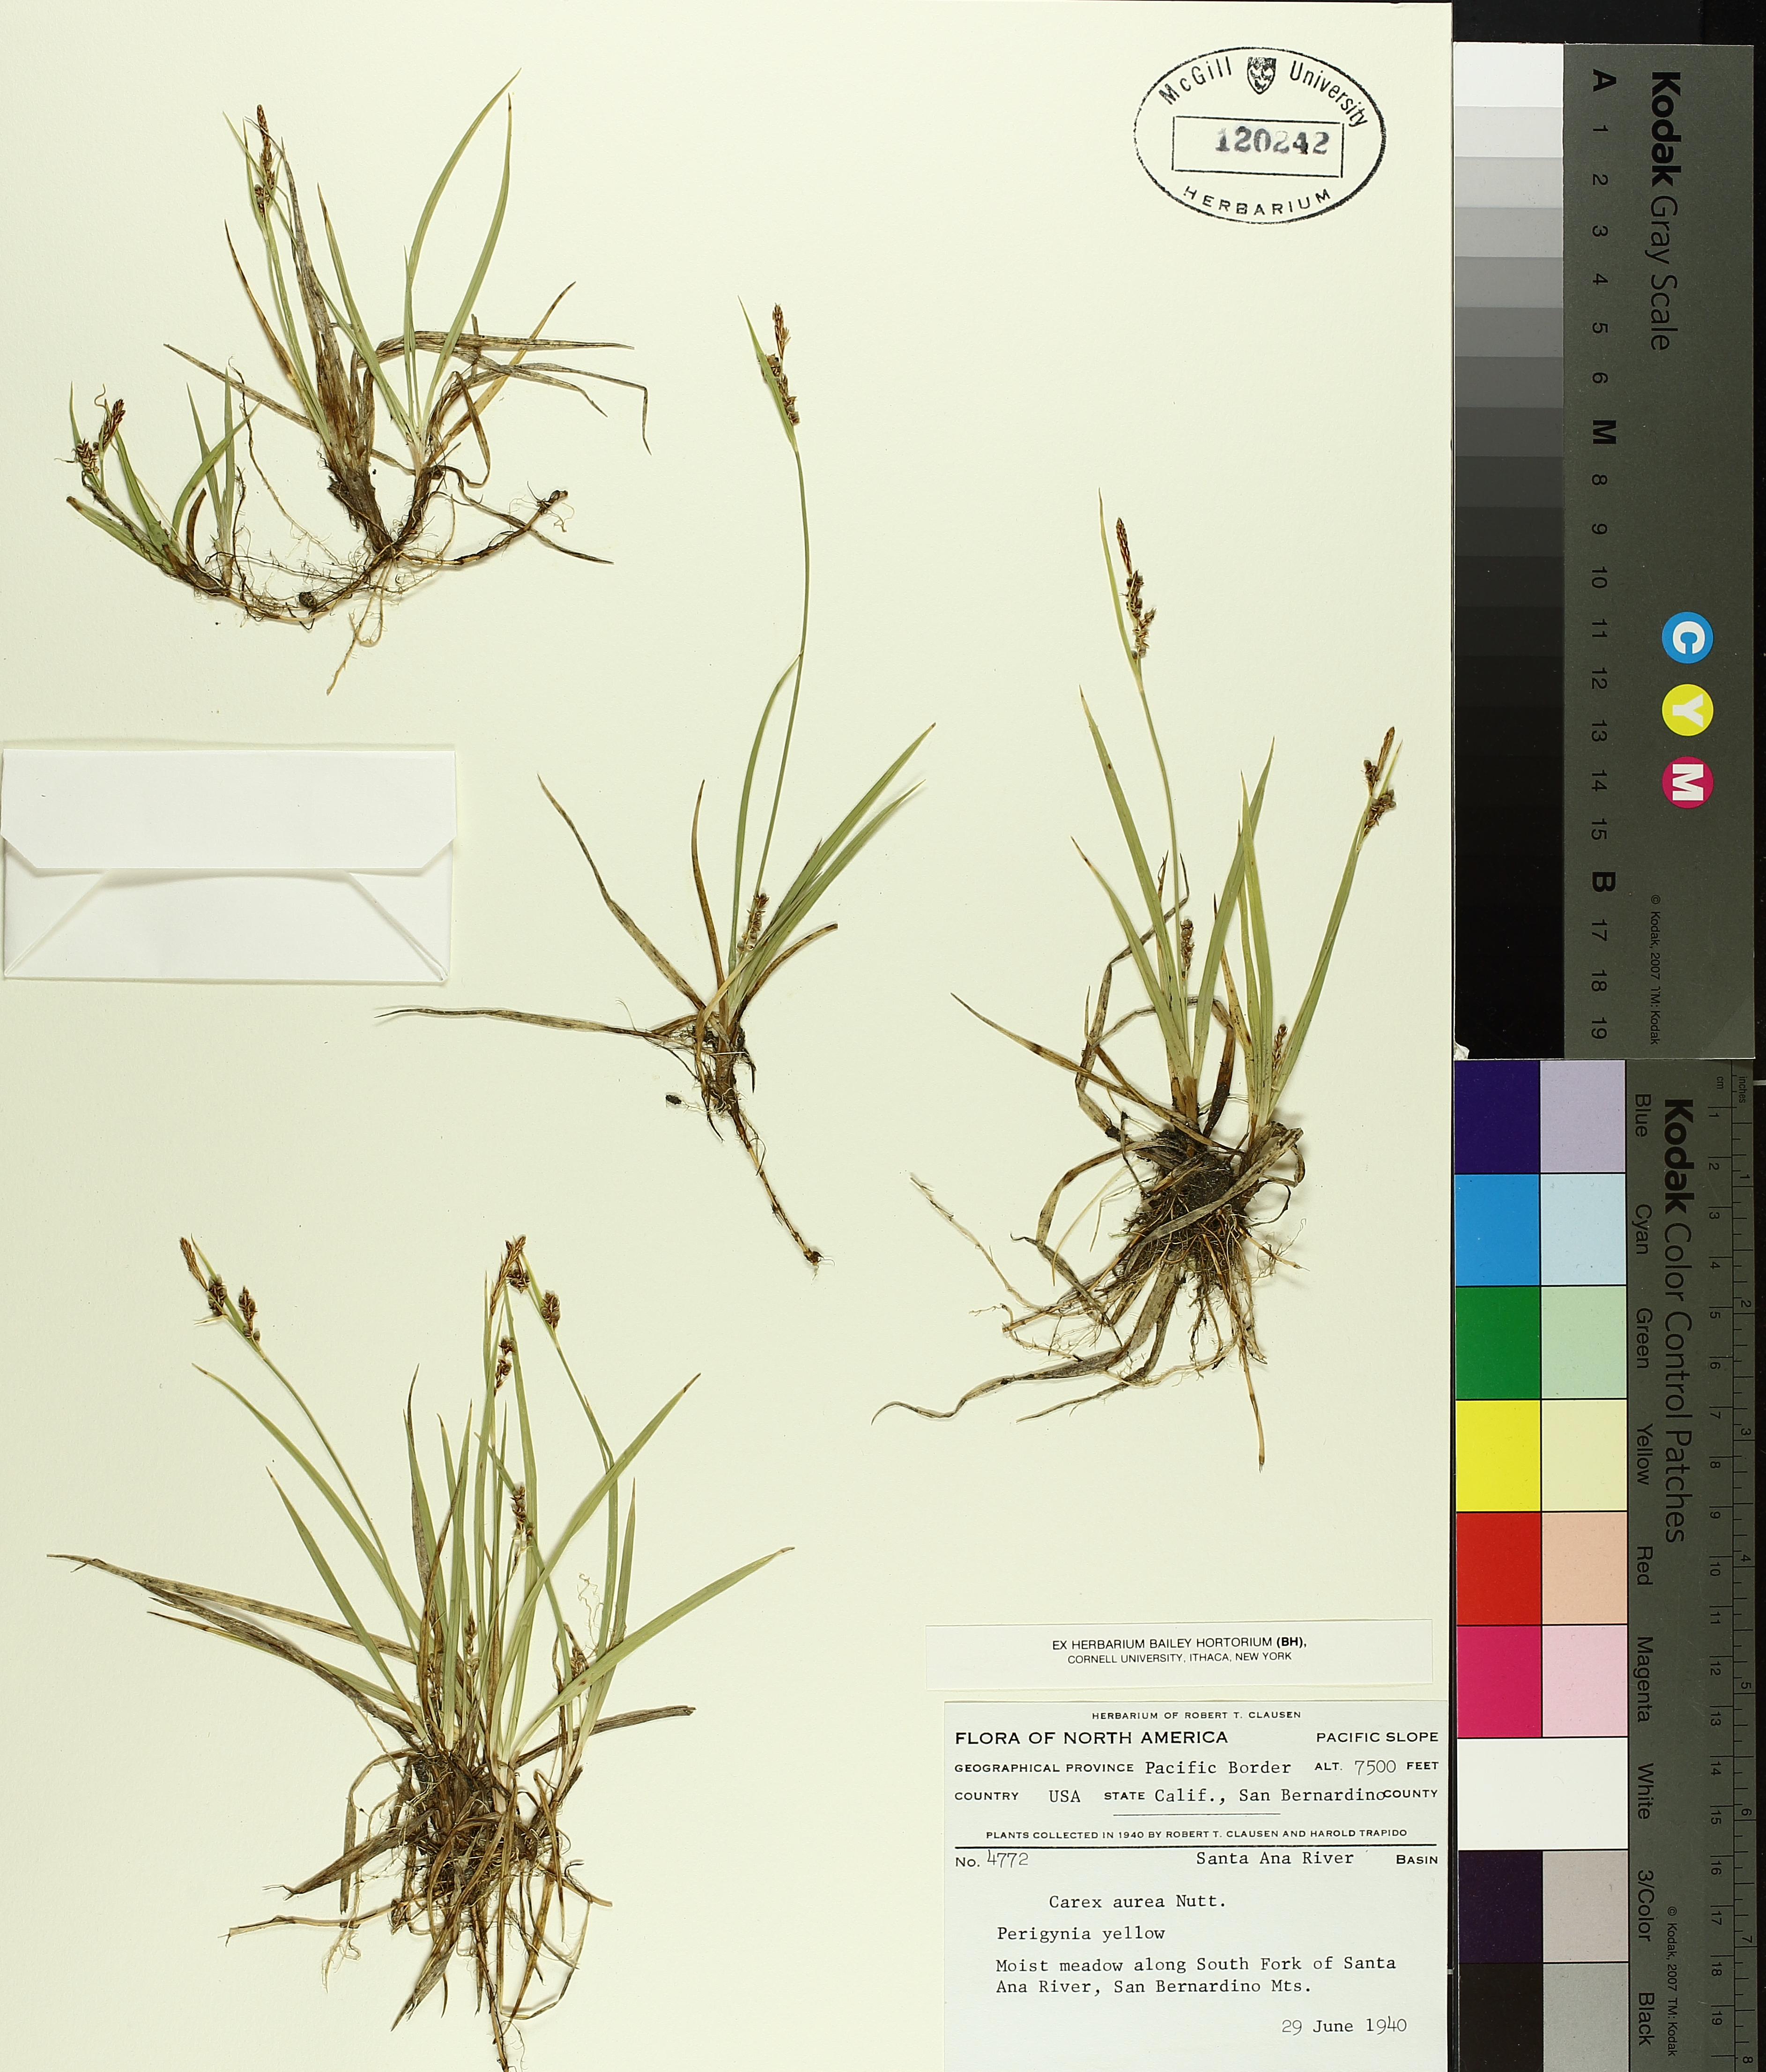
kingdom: Plantae
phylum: Tracheophyta
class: Liliopsida
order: Poales
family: Cyperaceae
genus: Carex
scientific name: Carex aurea
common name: Golden sedge
